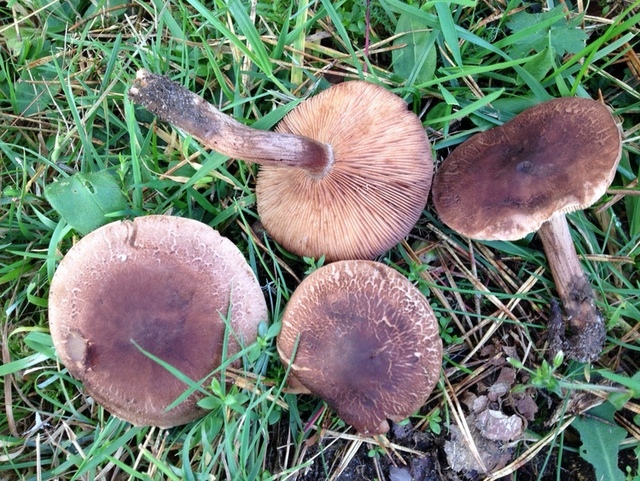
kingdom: Fungi
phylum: Basidiomycota
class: Agaricomycetes
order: Agaricales
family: Tricholomataceae
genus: Tricholoma
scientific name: Tricholoma imbricatum
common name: skællet ridderhat
